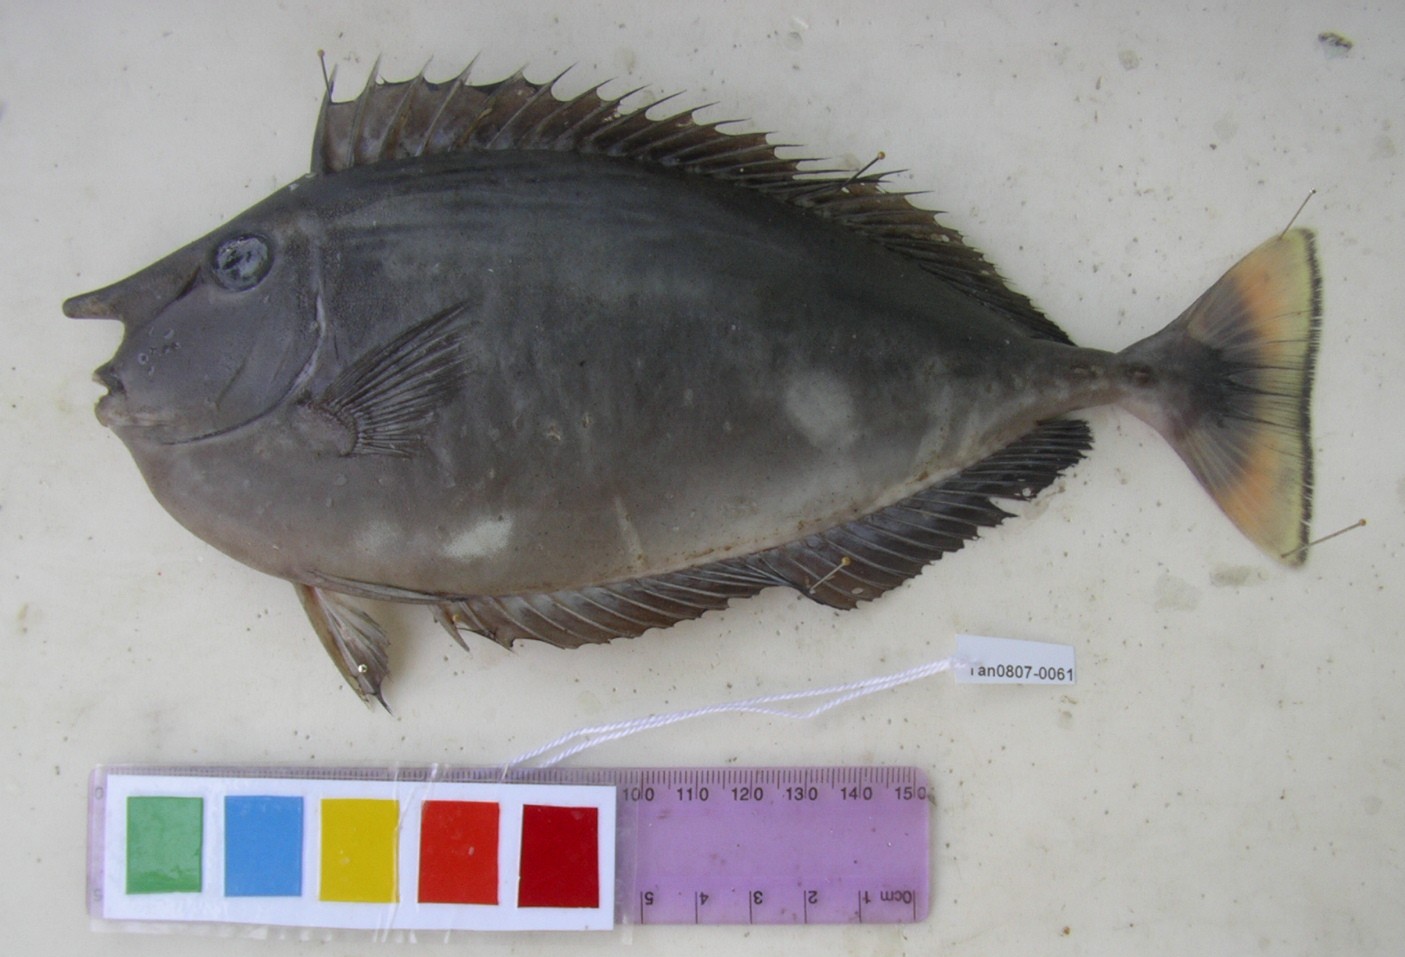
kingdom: Animalia
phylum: Chordata
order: Perciformes
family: Acanthuridae
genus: Naso
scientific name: Naso brevirostris
